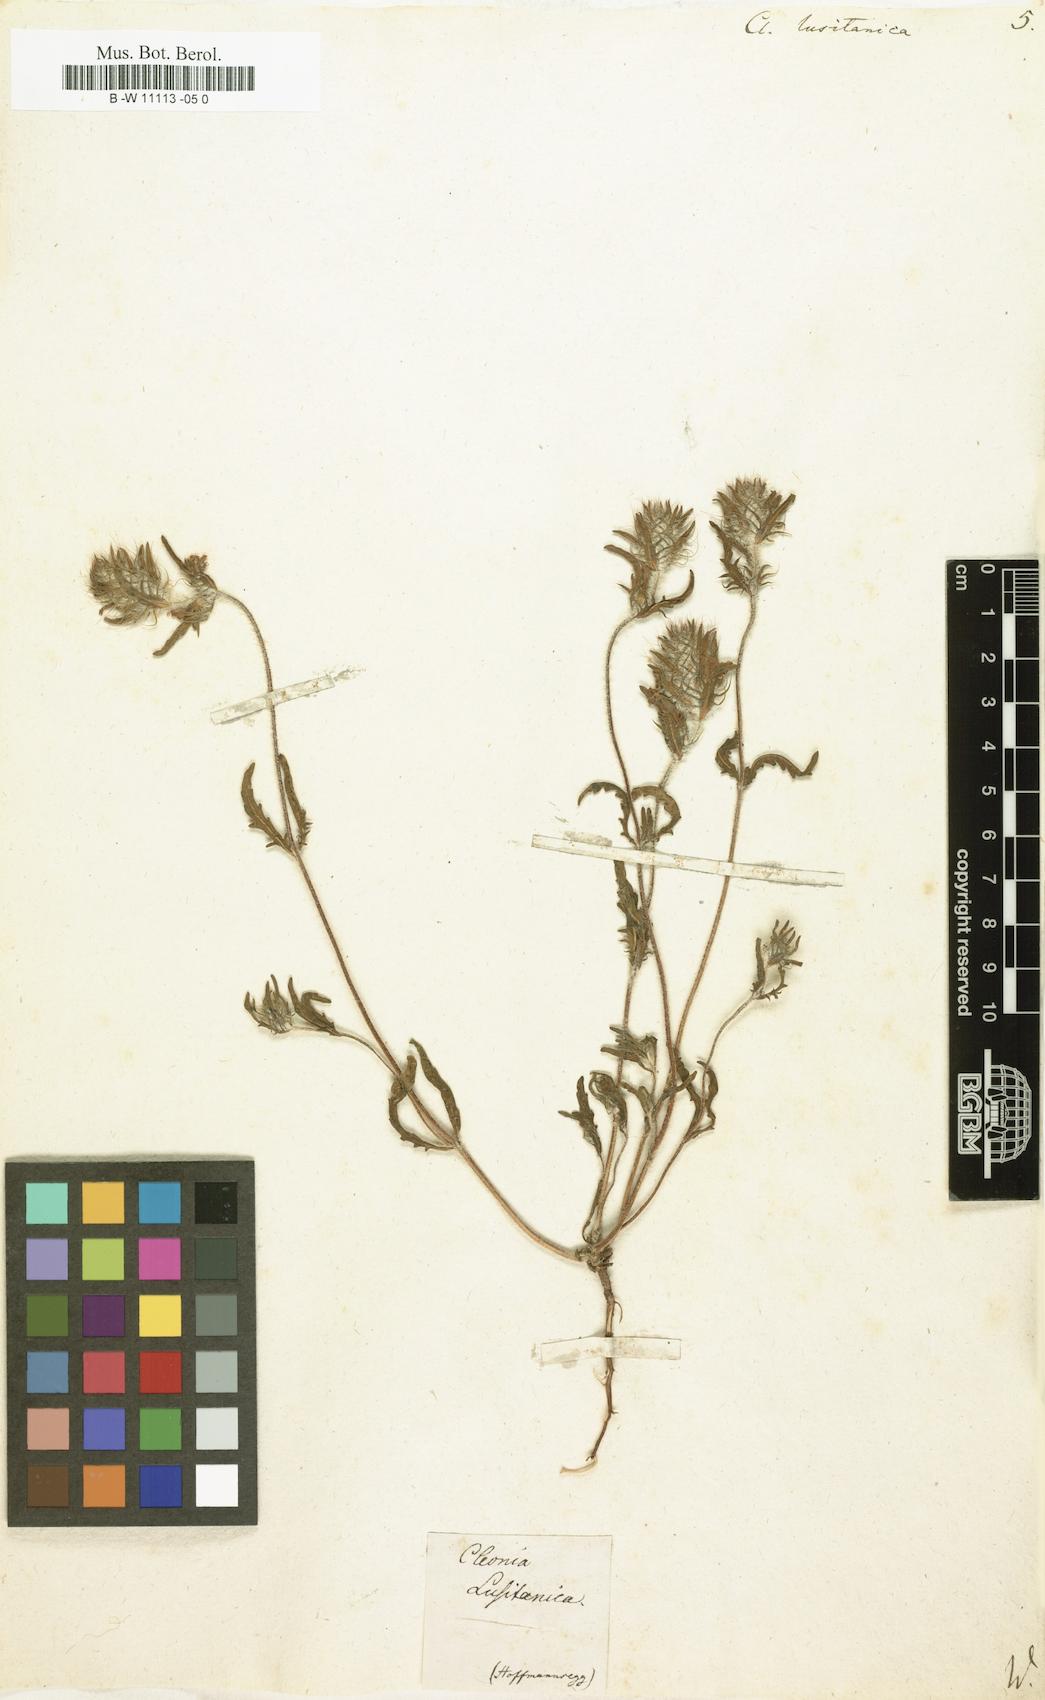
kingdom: Plantae
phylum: Tracheophyta
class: Magnoliopsida
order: Lamiales
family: Lamiaceae
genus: Cleonia
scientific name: Cleonia lusitanica
